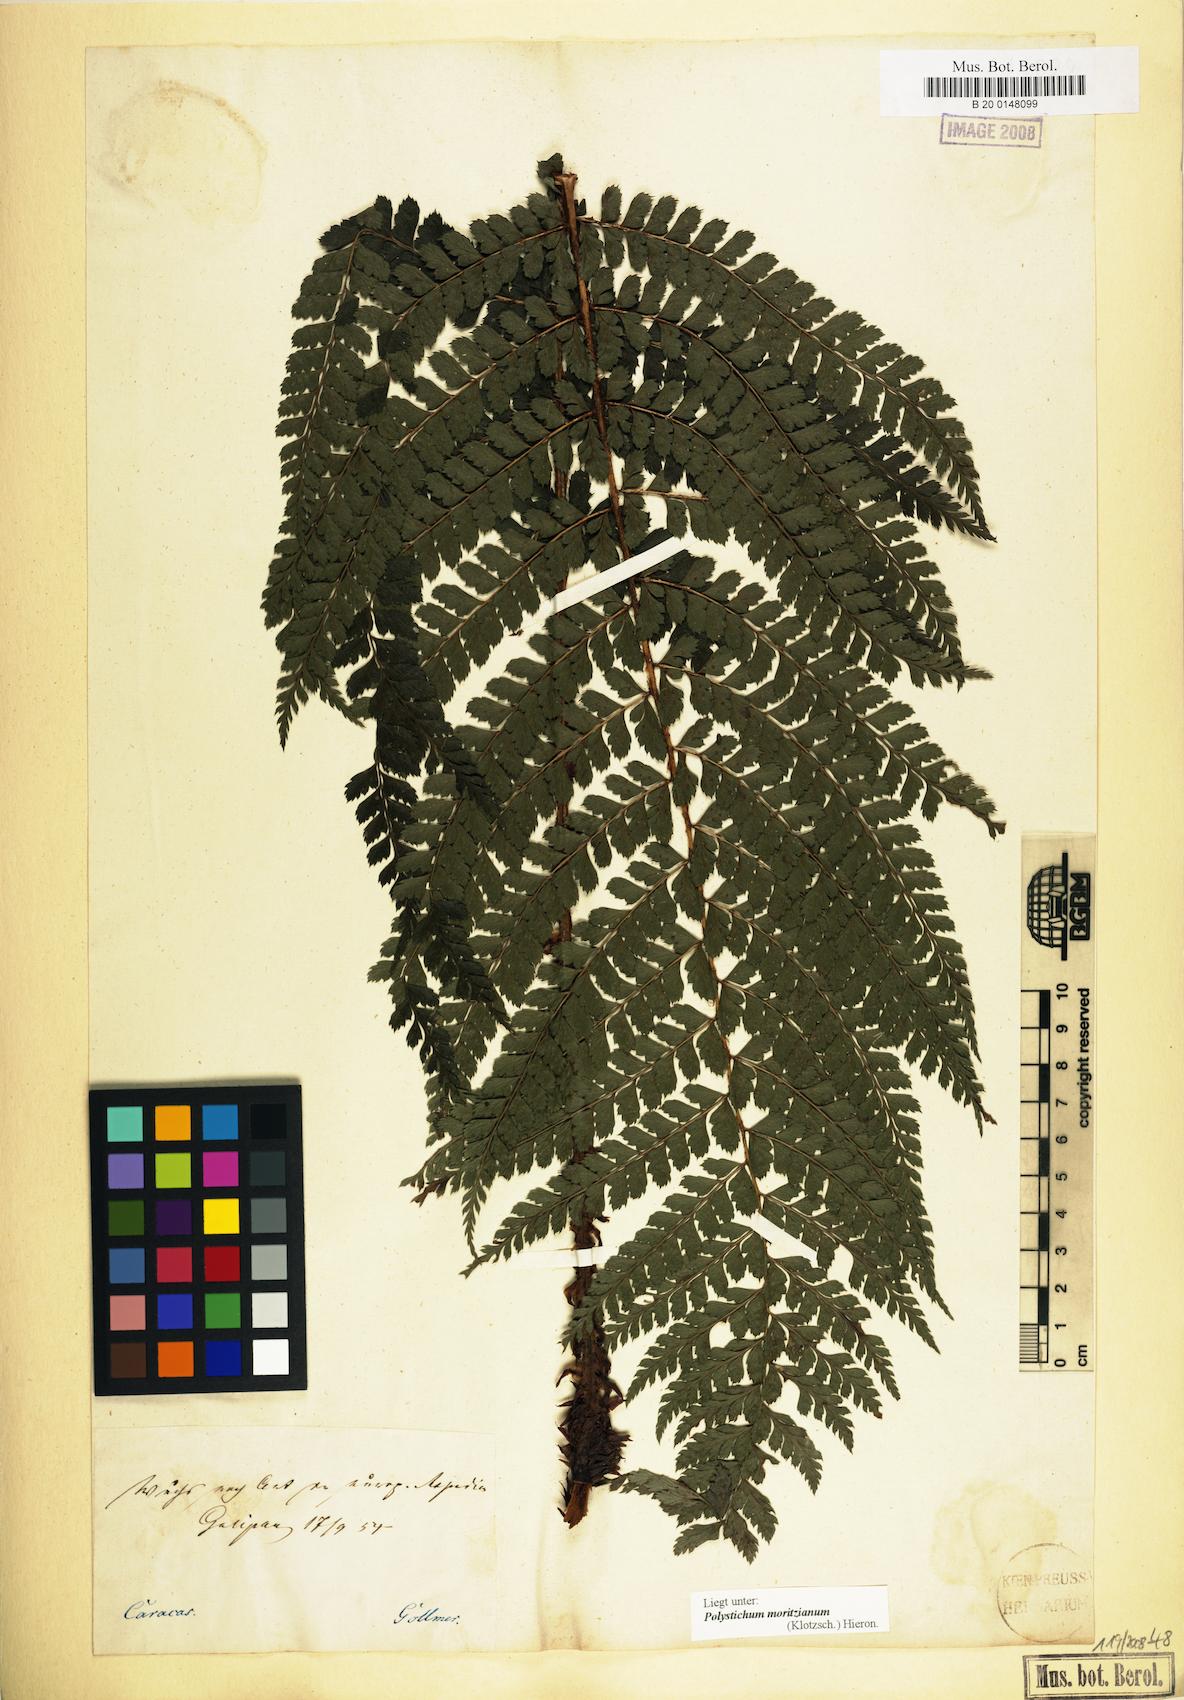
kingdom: Plantae
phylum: Tracheophyta
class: Polypodiopsida
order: Polypodiales
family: Dryopteridaceae
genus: Polystichum
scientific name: Polystichum muricatum
